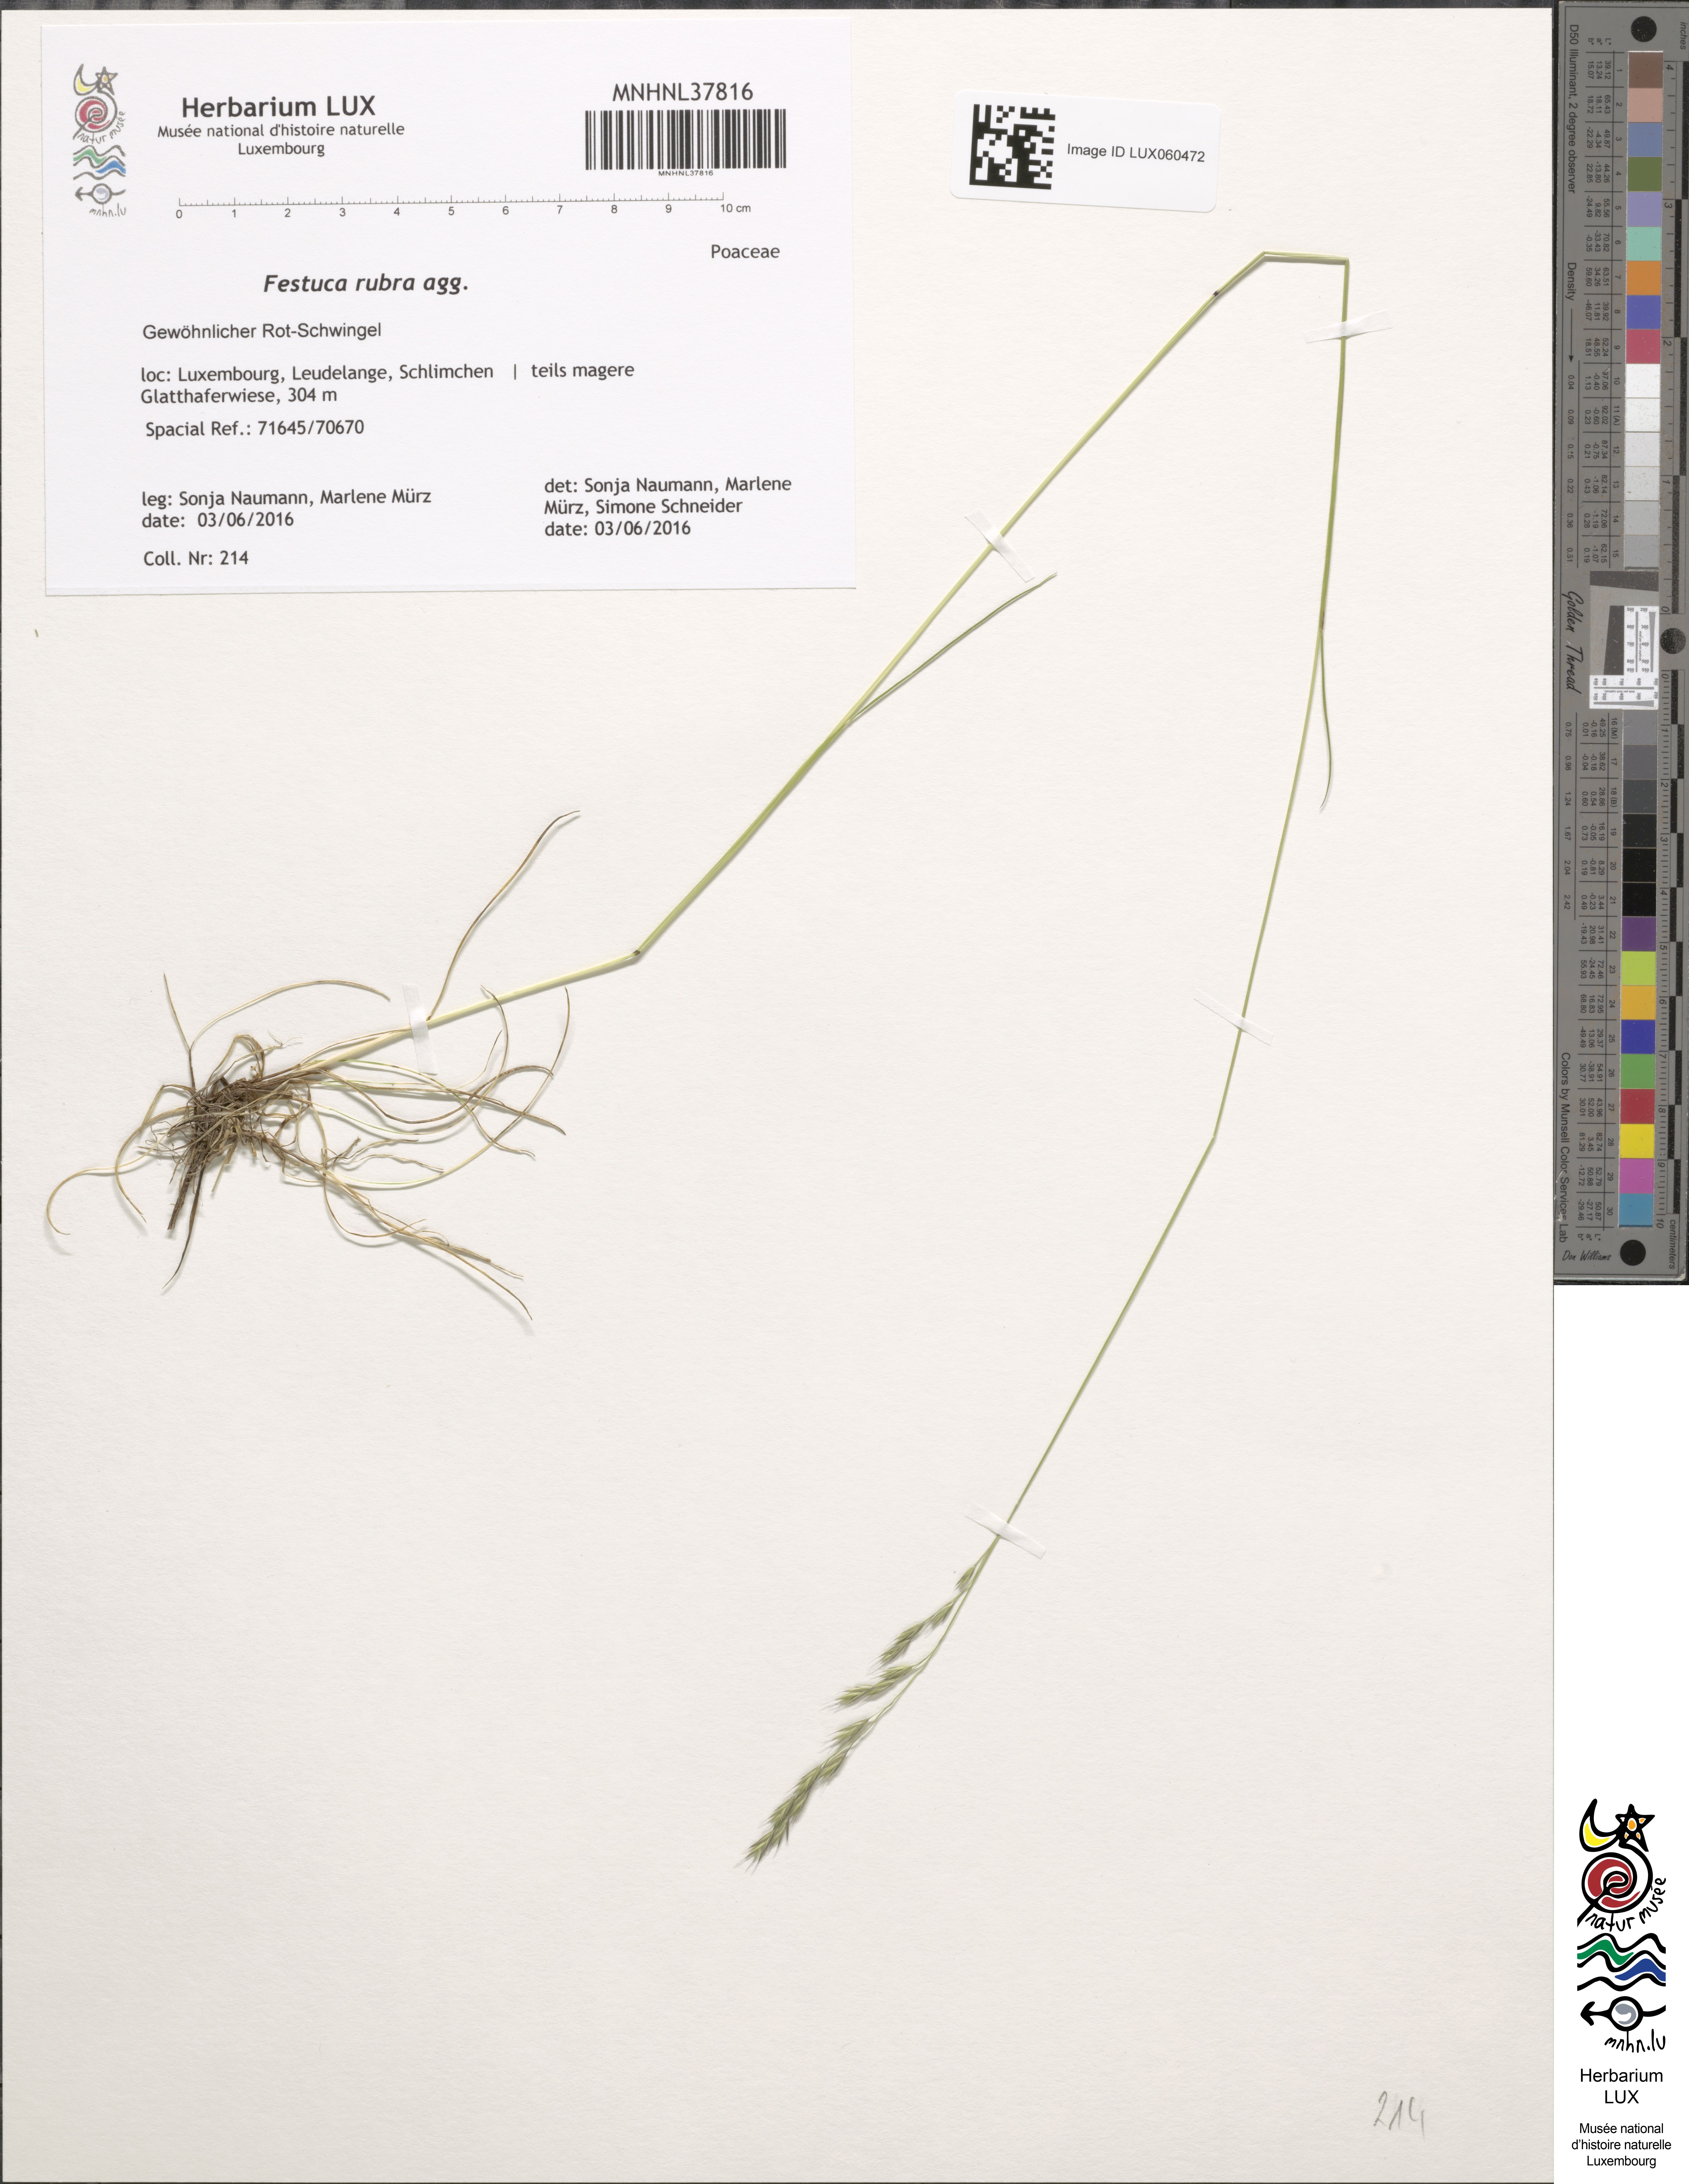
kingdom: Plantae
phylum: Tracheophyta
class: Liliopsida
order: Poales
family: Poaceae
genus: Festuca
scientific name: Festuca
